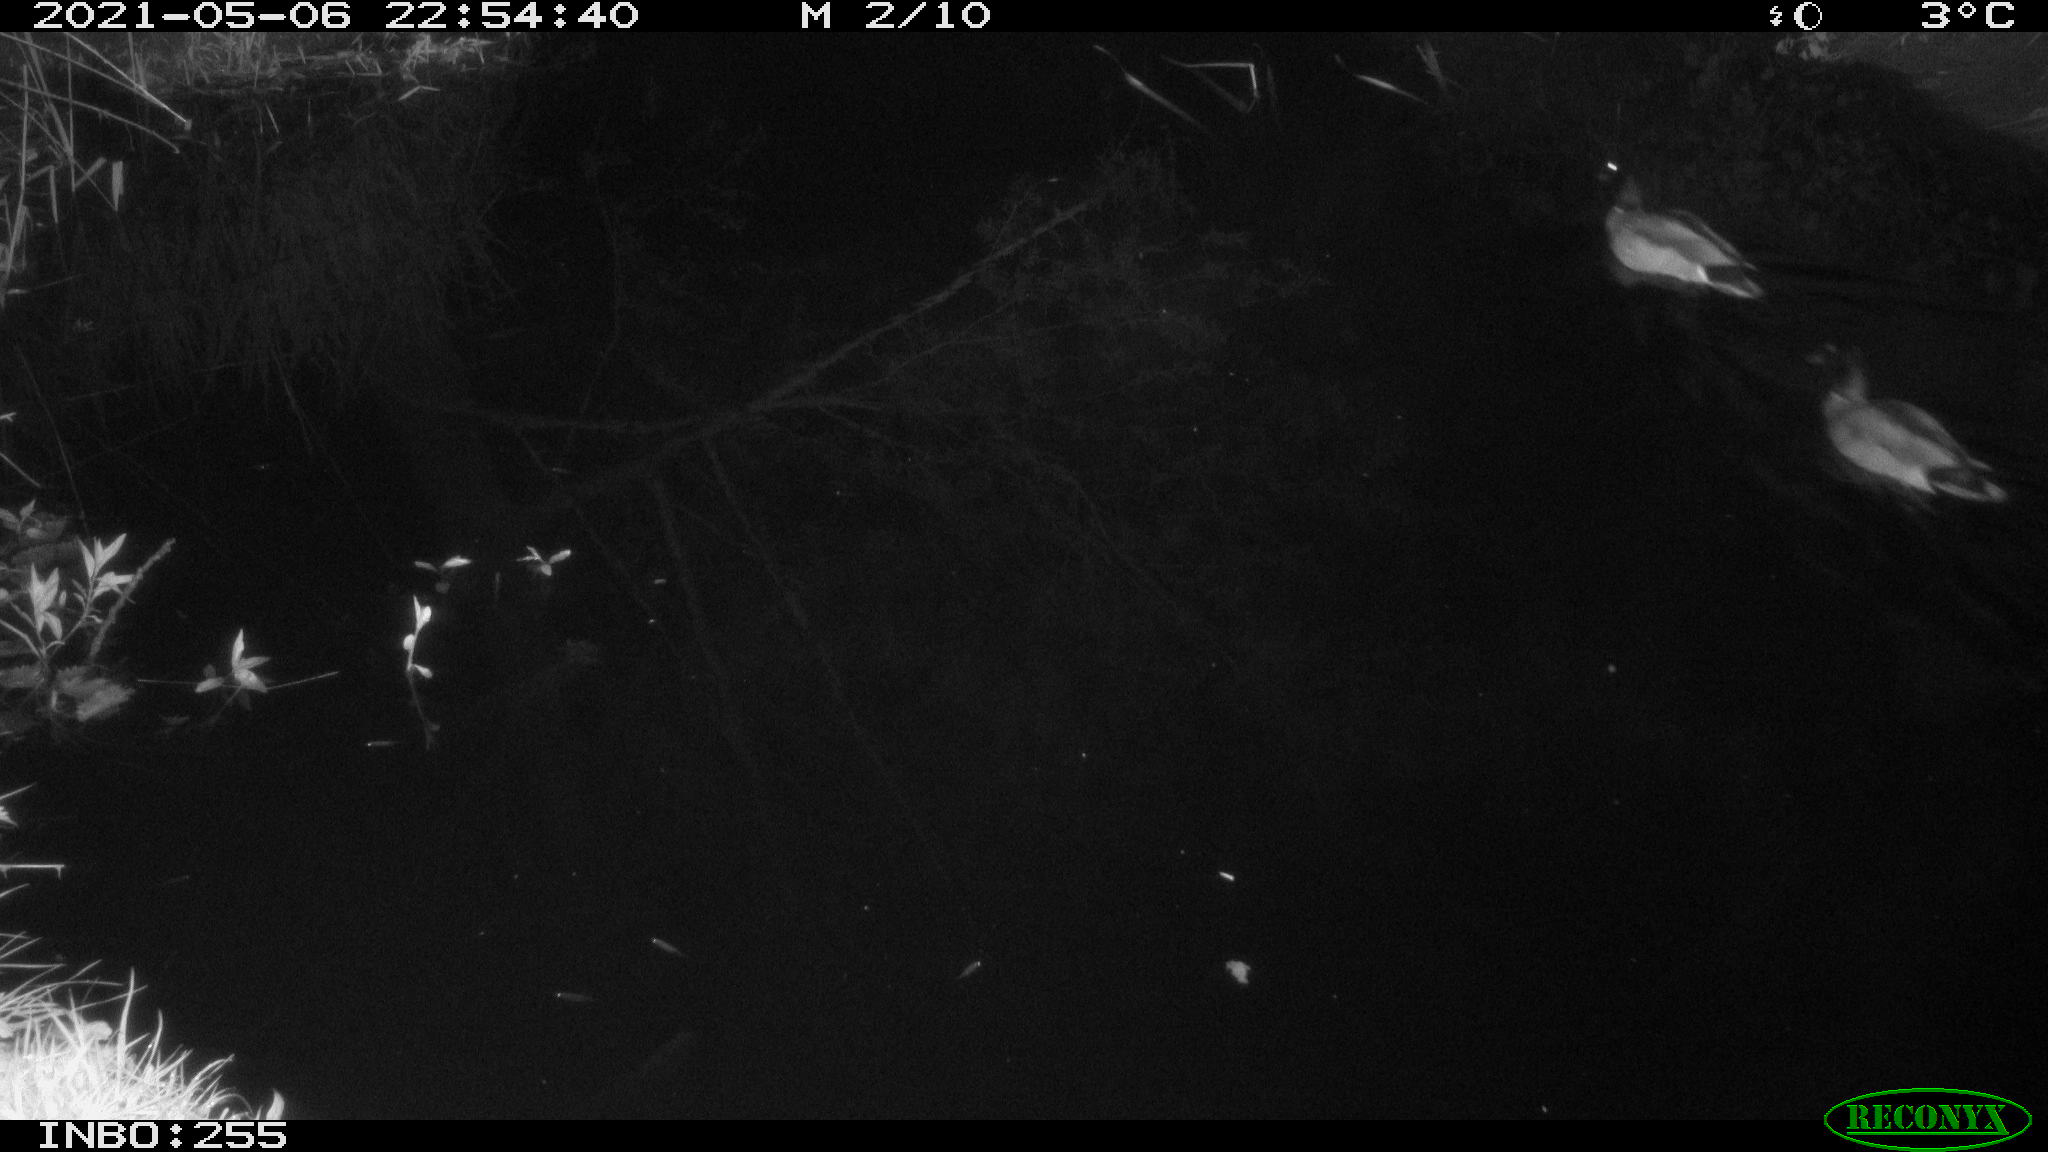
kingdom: Animalia
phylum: Chordata
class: Aves
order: Anseriformes
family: Anatidae
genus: Anas
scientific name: Anas platyrhynchos
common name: Mallard
